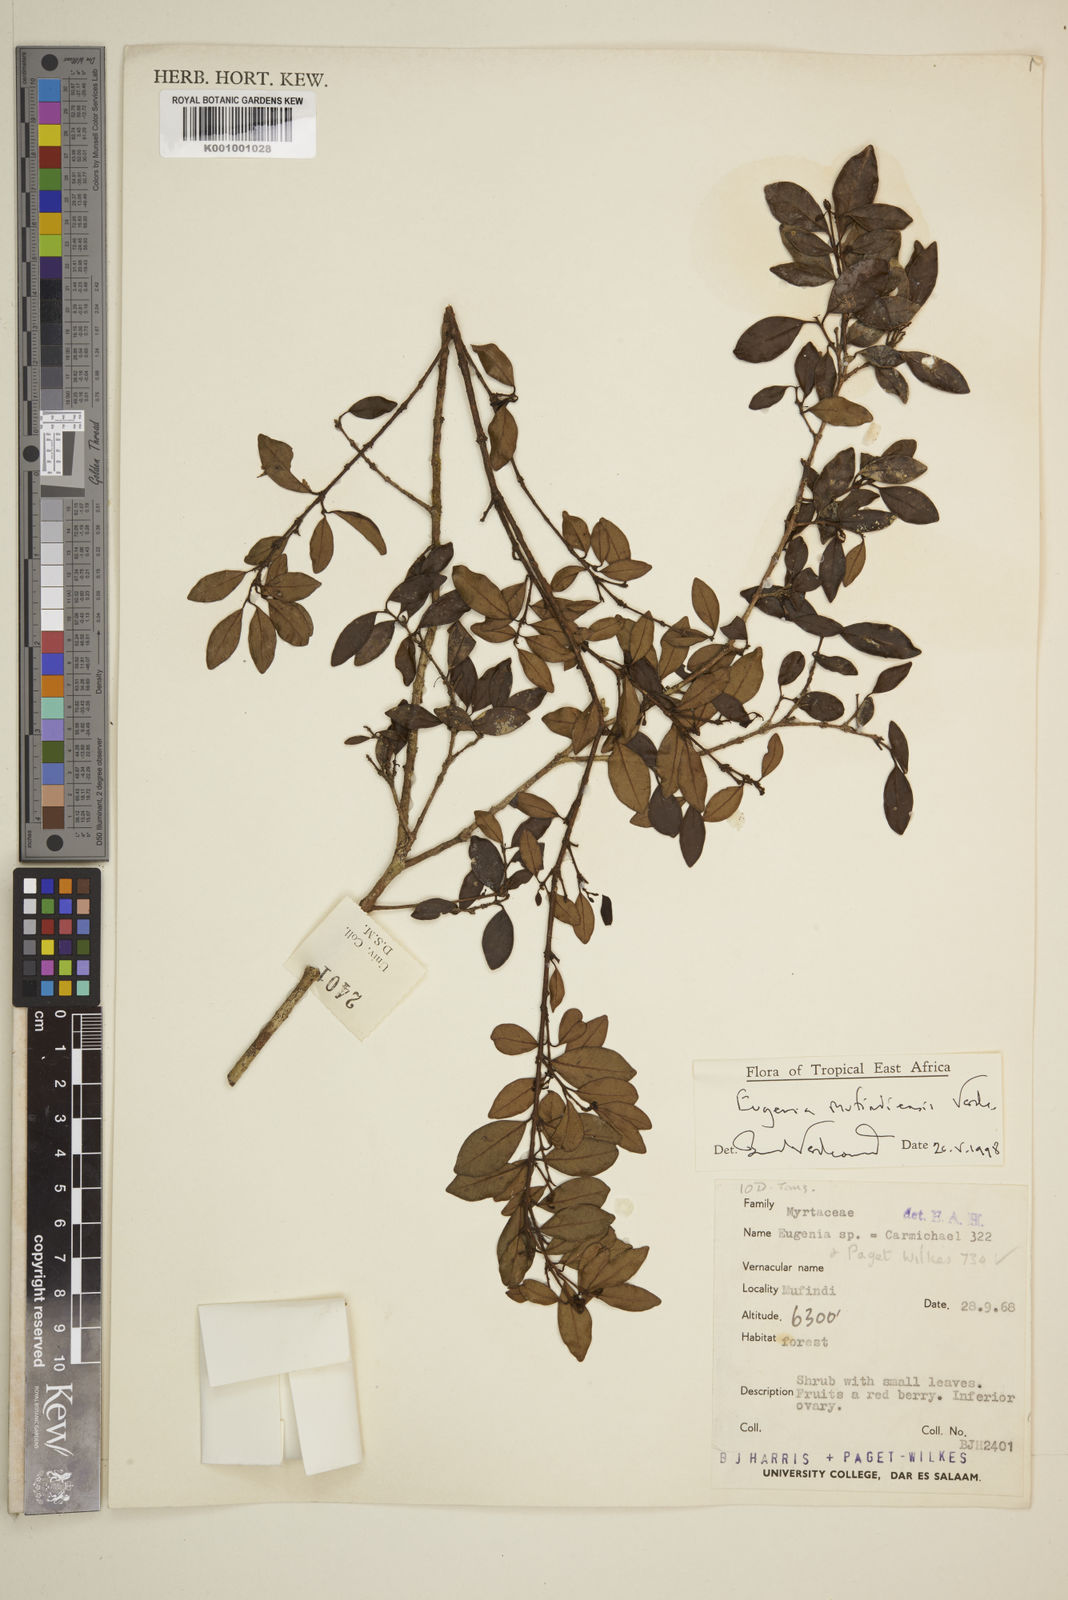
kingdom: Plantae
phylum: Tracheophyta
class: Magnoliopsida
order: Myrtales
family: Myrtaceae
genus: Eugenia
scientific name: Eugenia mufindiensis
